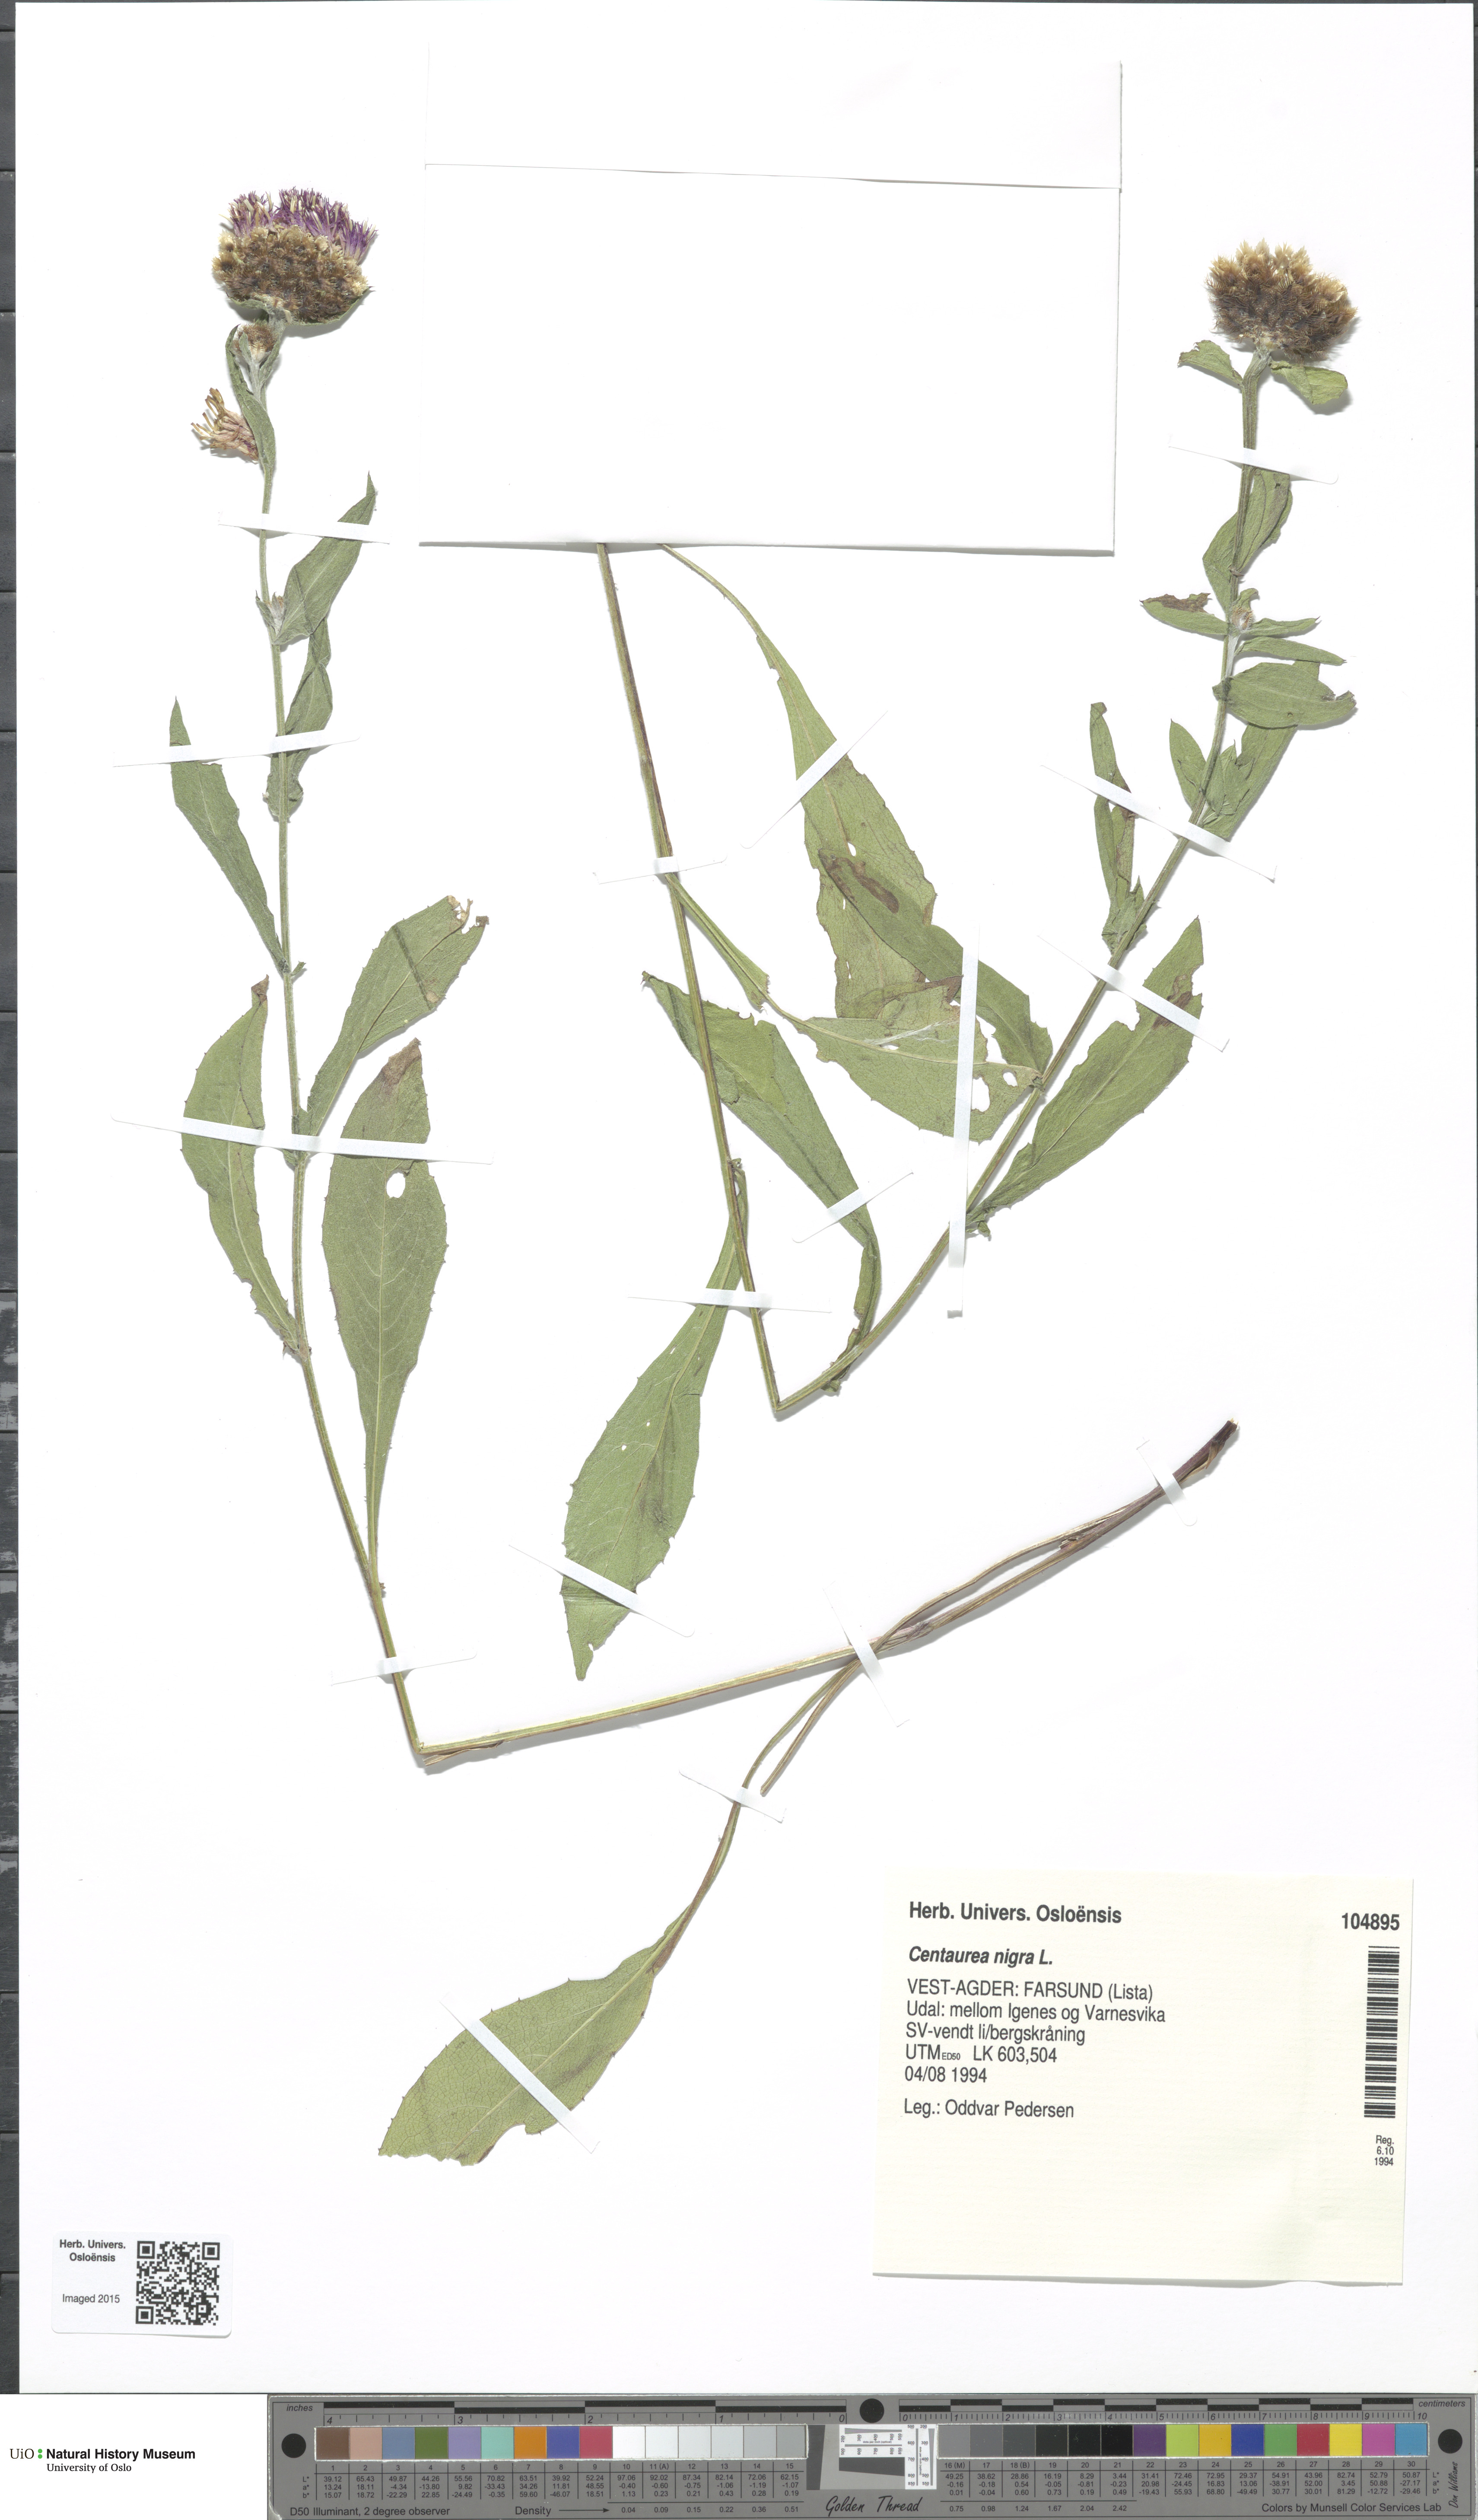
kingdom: Plantae
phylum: Tracheophyta
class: Magnoliopsida
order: Asterales
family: Asteraceae
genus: Centaurea
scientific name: Centaurea nigra
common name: Lesser knapweed
